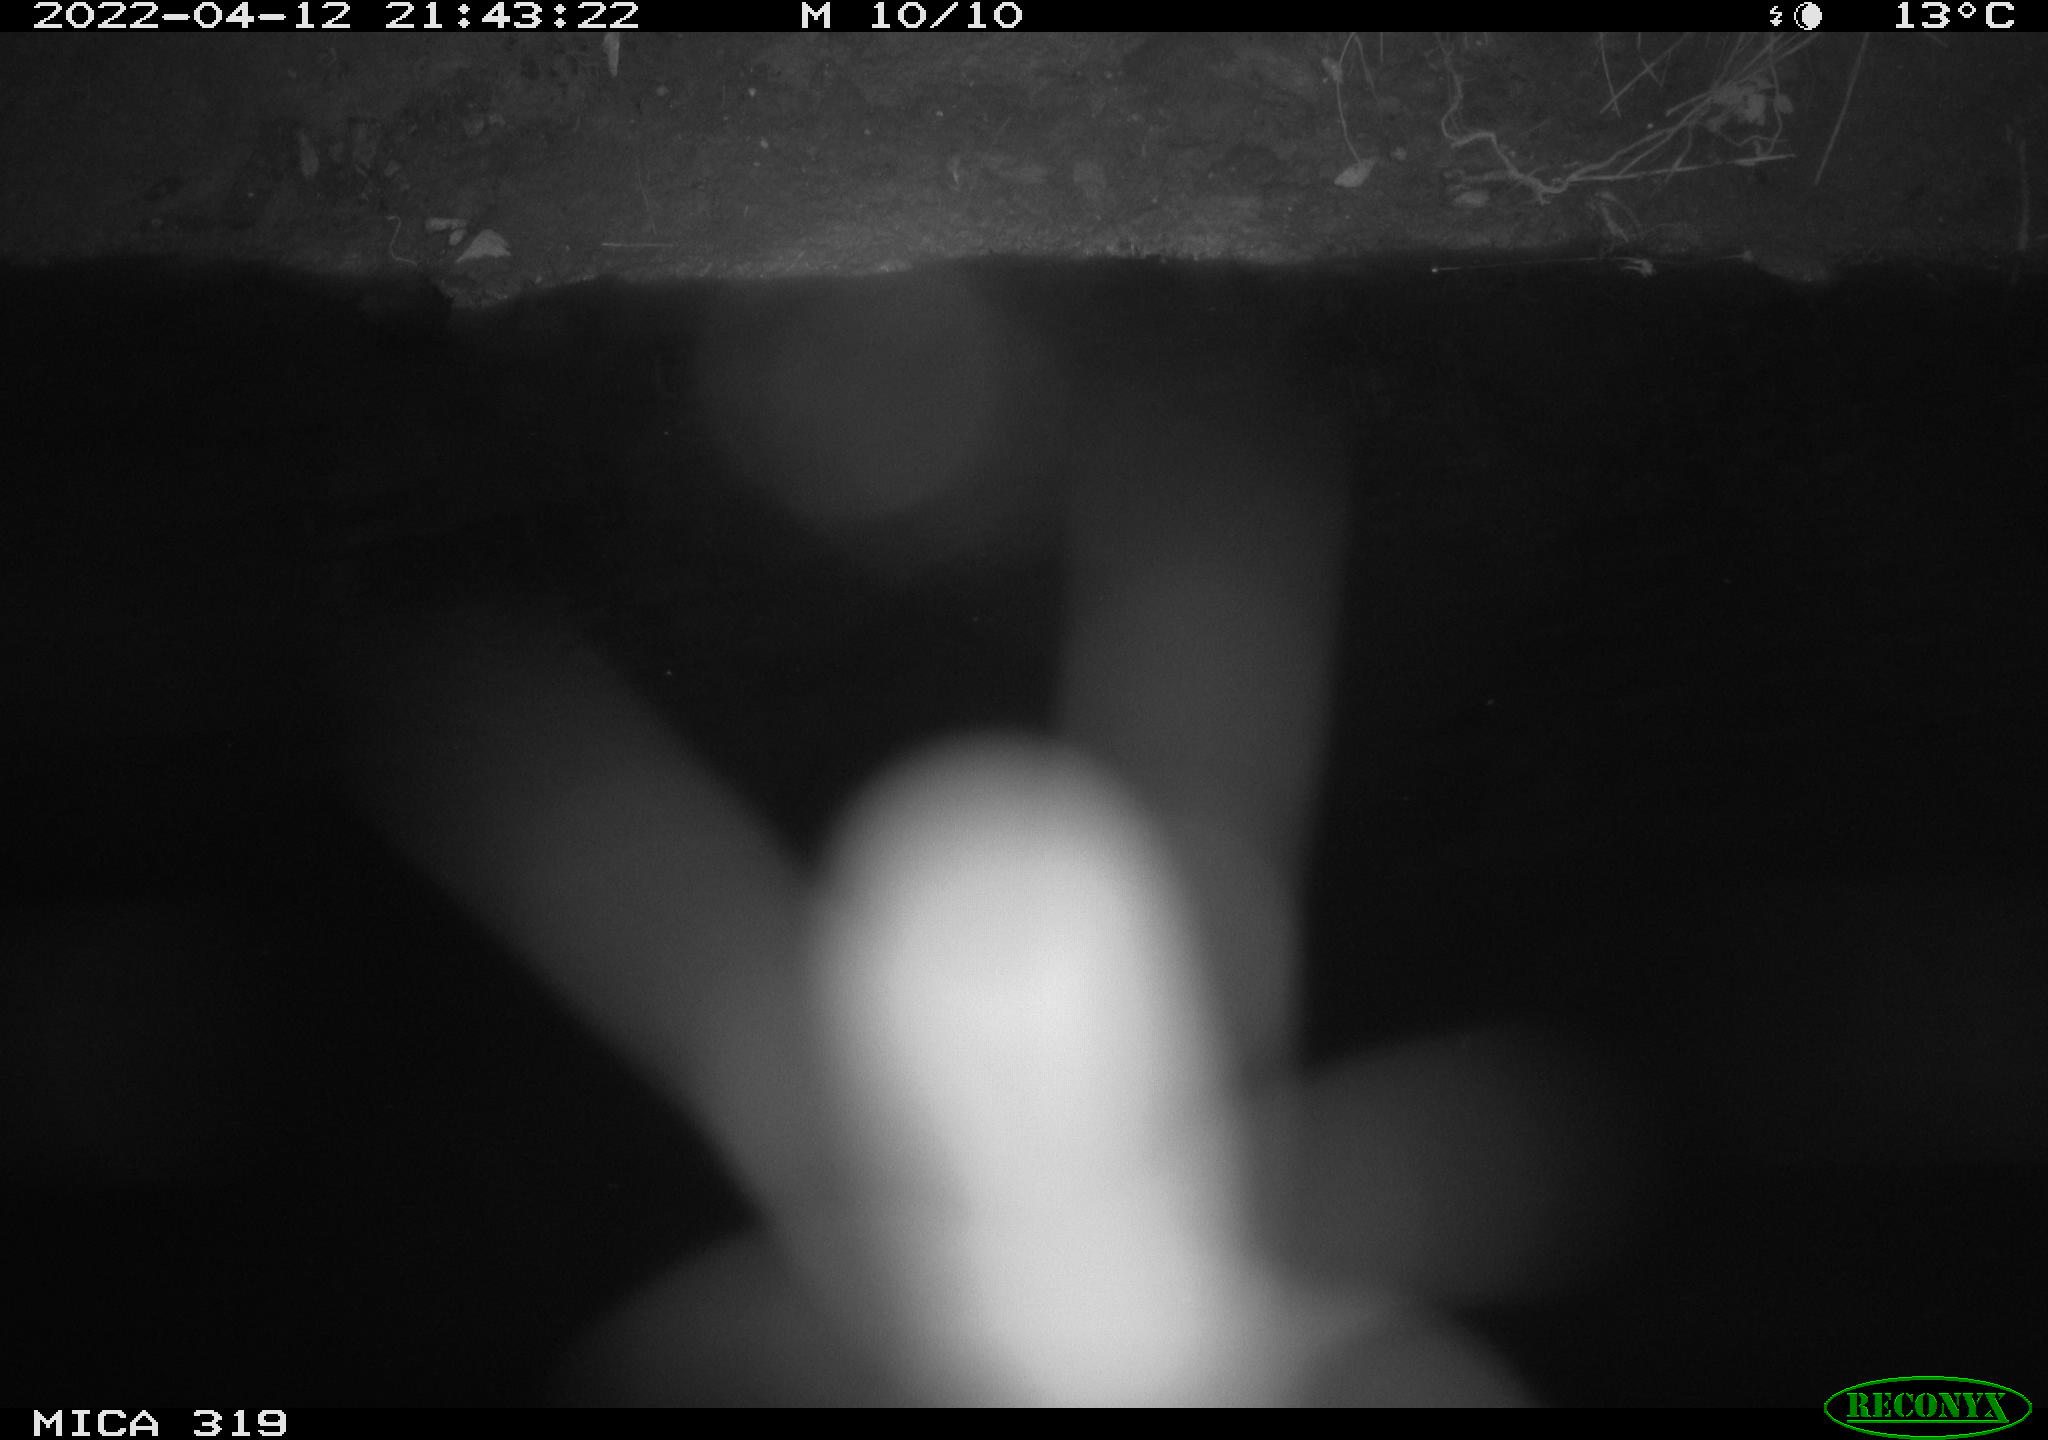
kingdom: Animalia
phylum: Chordata
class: Aves
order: Anseriformes
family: Anatidae
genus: Anas
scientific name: Anas platyrhynchos
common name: Mallard
